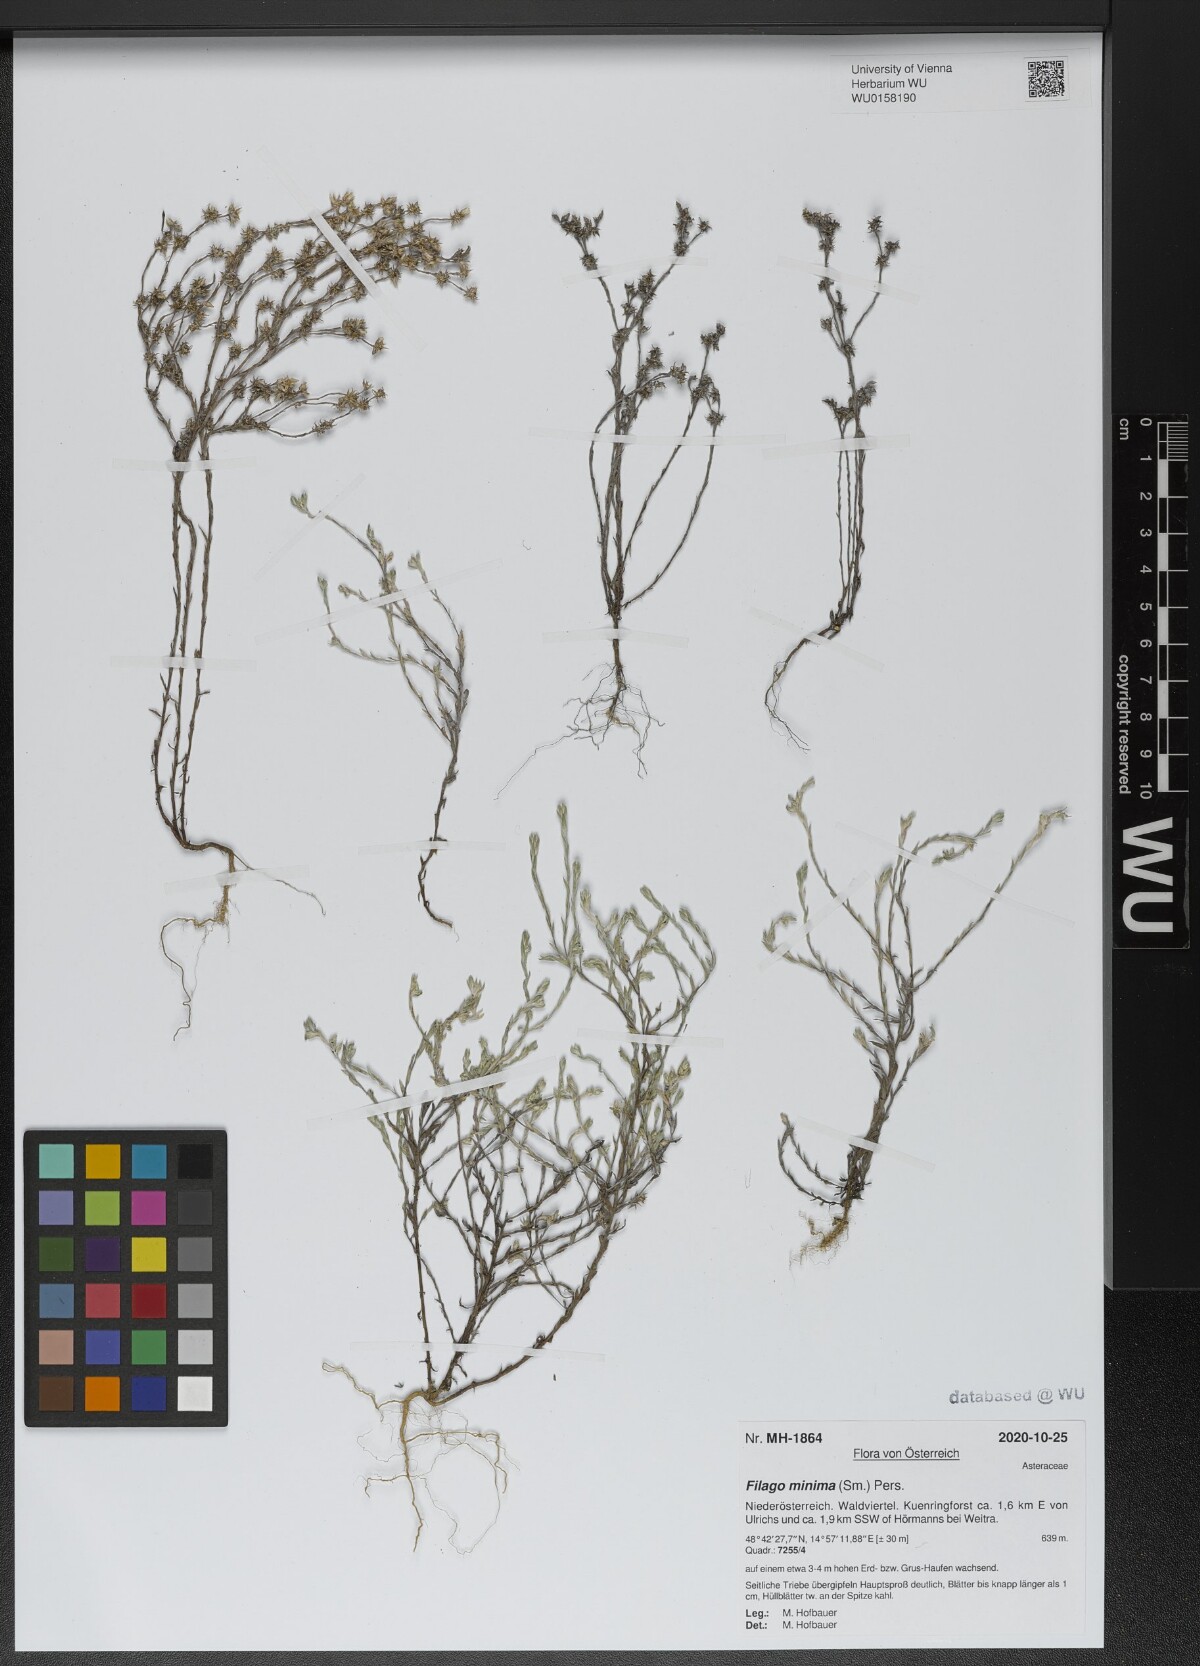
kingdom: Plantae
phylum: Tracheophyta
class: Magnoliopsida
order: Asterales
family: Asteraceae
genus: Logfia
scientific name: Logfia minima
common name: Little cottonrose
